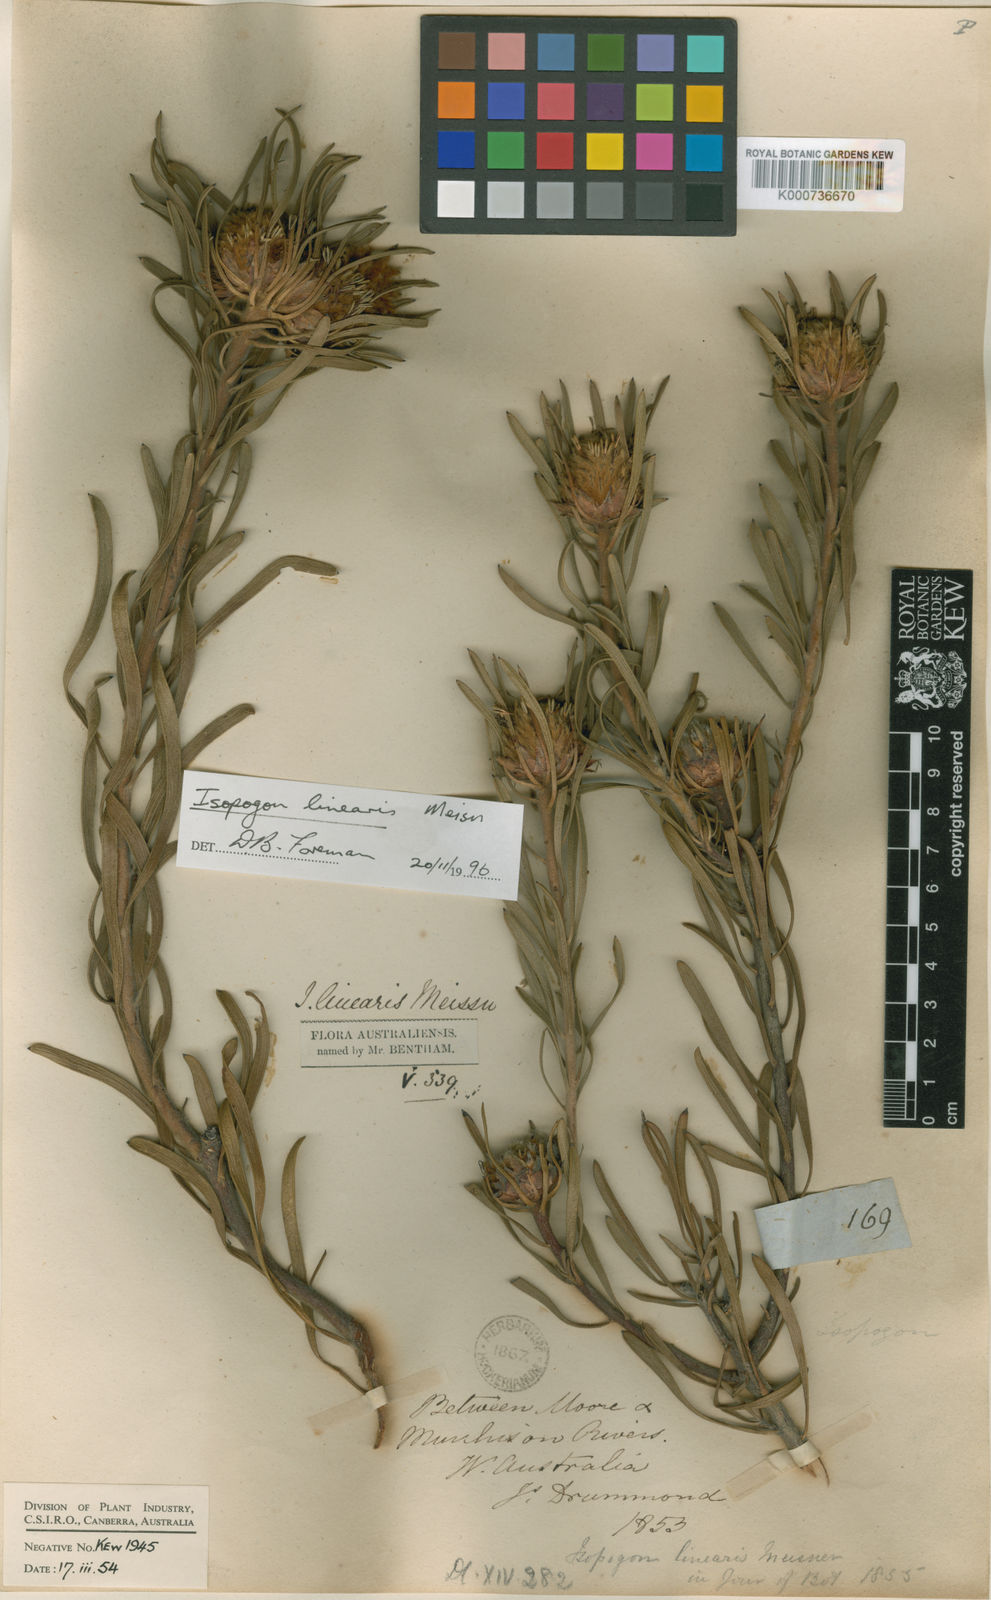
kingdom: Plantae
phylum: Tracheophyta
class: Magnoliopsida
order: Proteales
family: Proteaceae
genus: Isopogon
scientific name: Isopogon linearis
